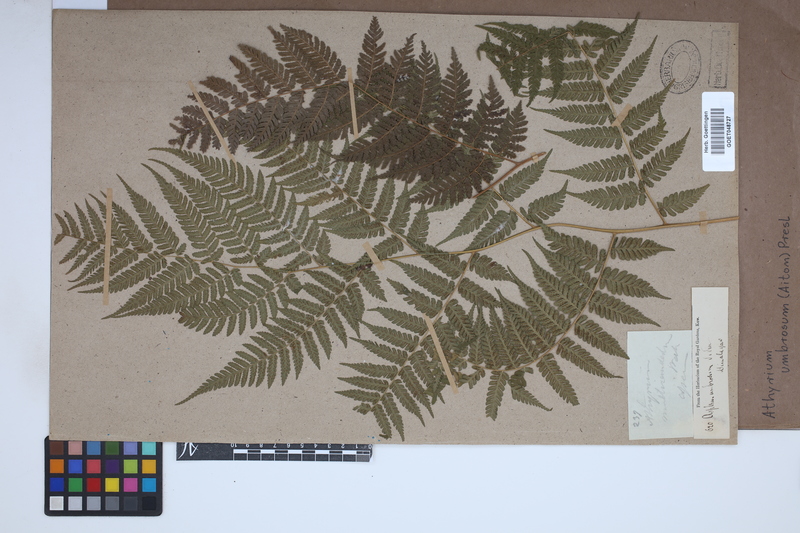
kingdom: Plantae
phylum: Tracheophyta
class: Polypodiopsida
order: Polypodiales
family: Athyriaceae
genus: Diplazium
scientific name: Diplazium caudatum
